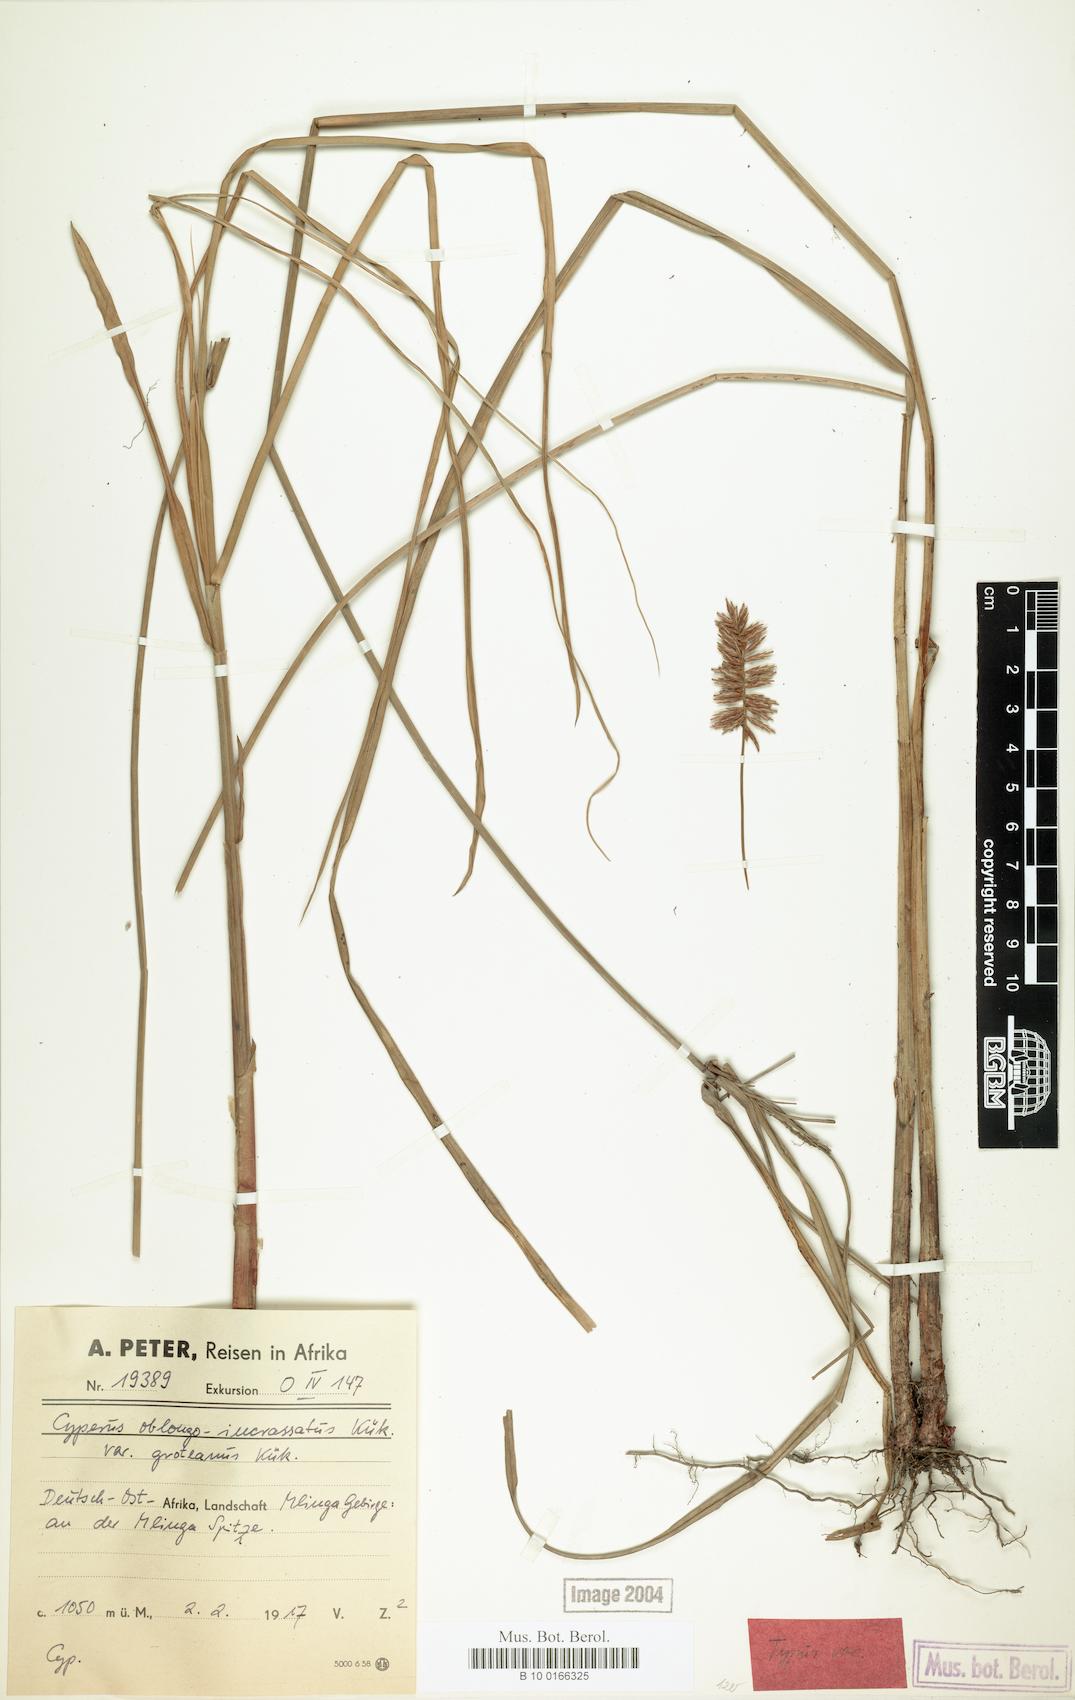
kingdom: Plantae
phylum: Tracheophyta
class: Liliopsida
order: Poales
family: Cyperaceae
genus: Cyperus
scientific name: Cyperus oblongoincrassatus
